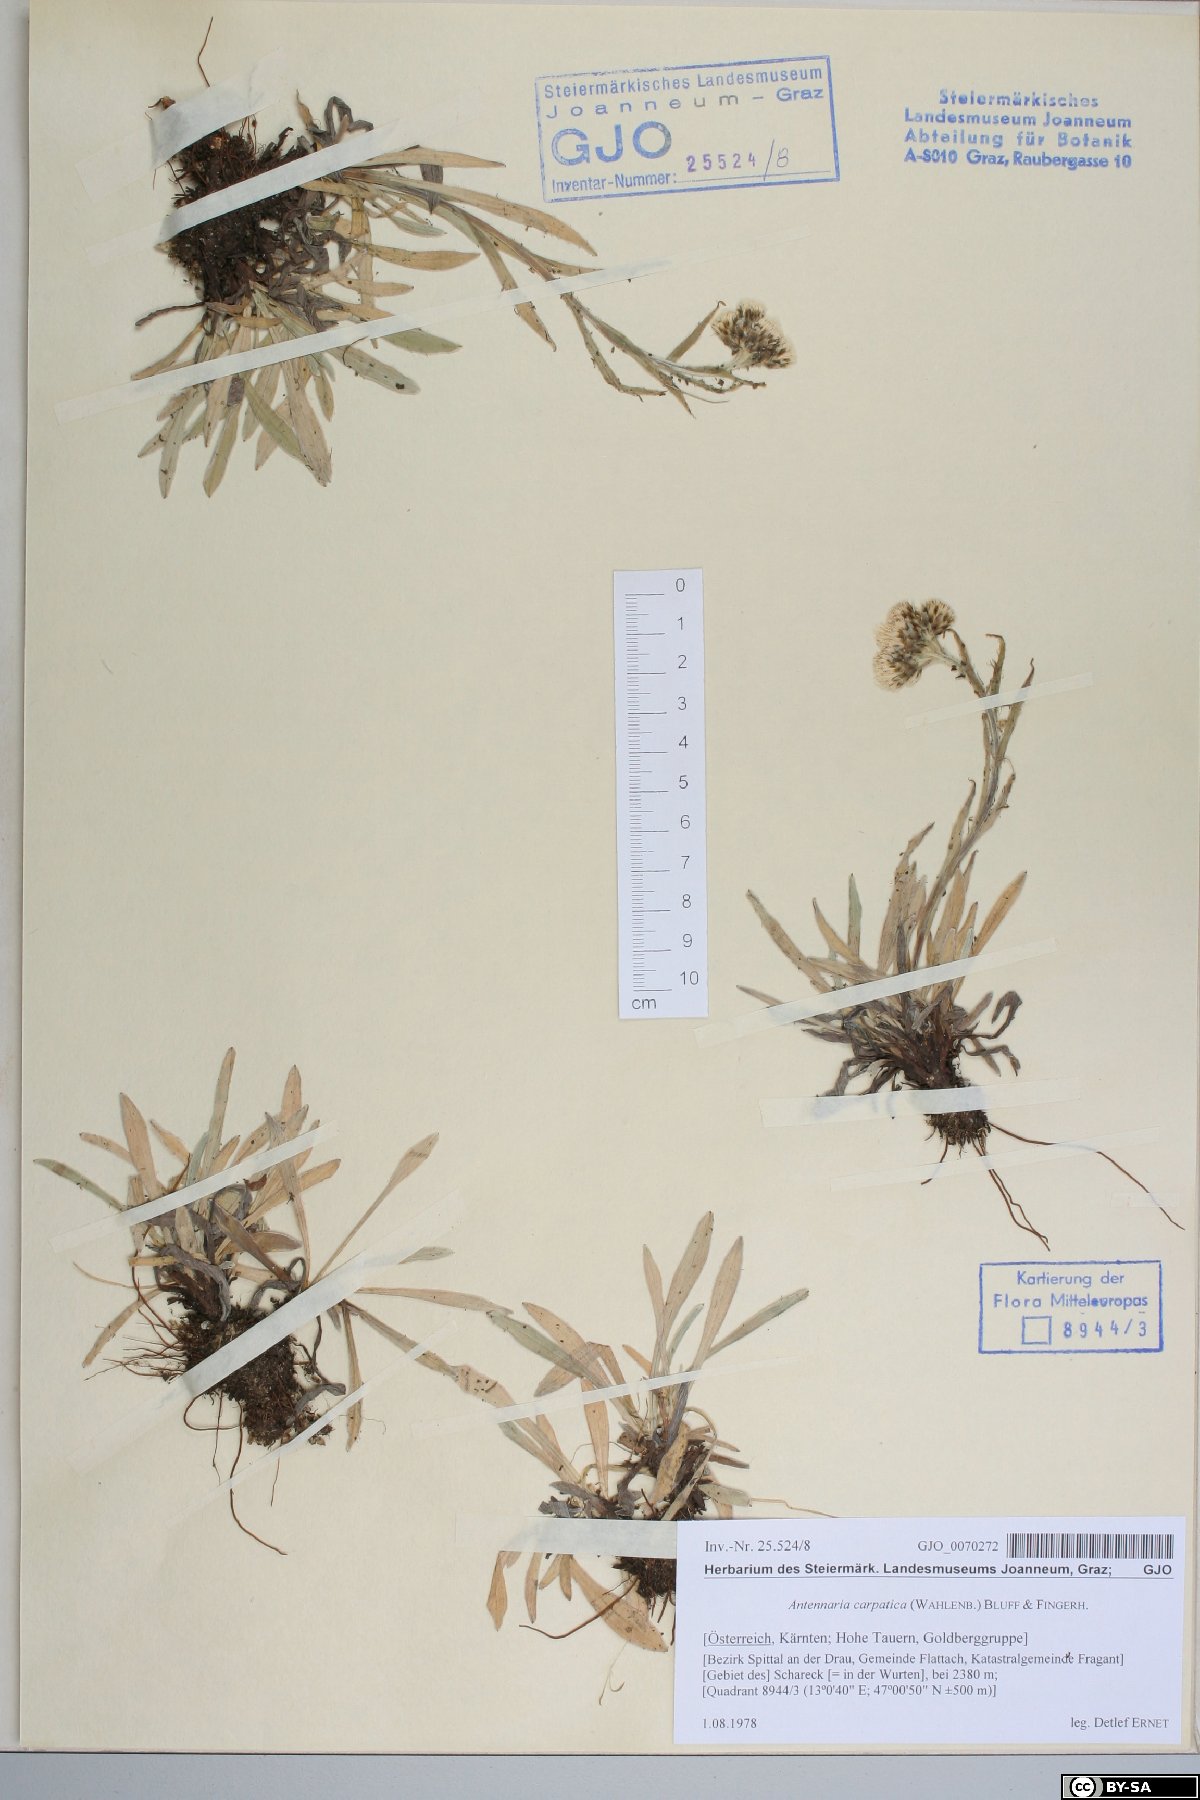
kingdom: Plantae
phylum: Tracheophyta
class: Magnoliopsida
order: Asterales
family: Asteraceae
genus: Antennaria
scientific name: Antennaria carpatica
